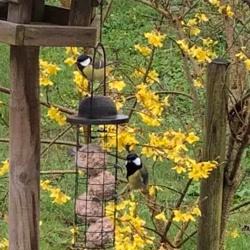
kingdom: Animalia
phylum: Chordata
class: Aves
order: Passeriformes
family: Paridae
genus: Parus
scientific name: Parus major
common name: Musvit
